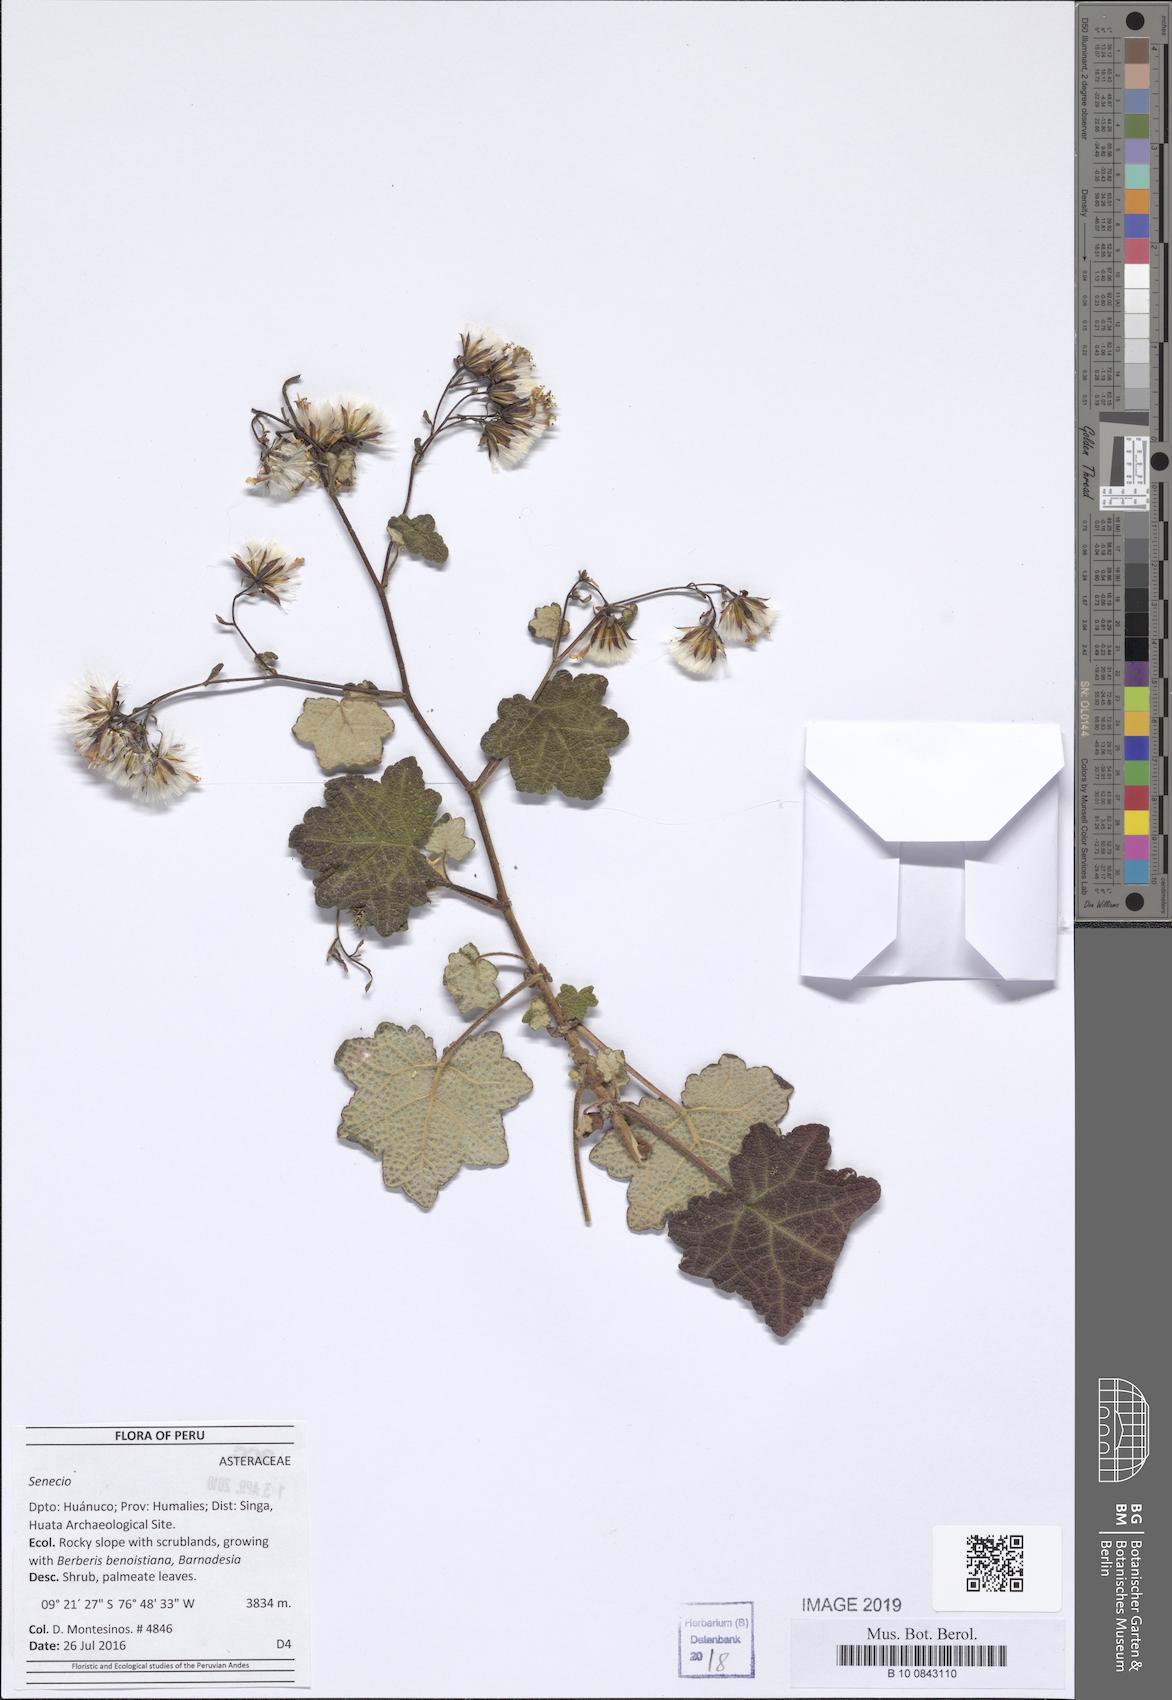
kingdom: Plantae
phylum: Tracheophyta
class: Magnoliopsida
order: Asterales
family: Asteraceae
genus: Jungia
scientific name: Jungia rugosa
